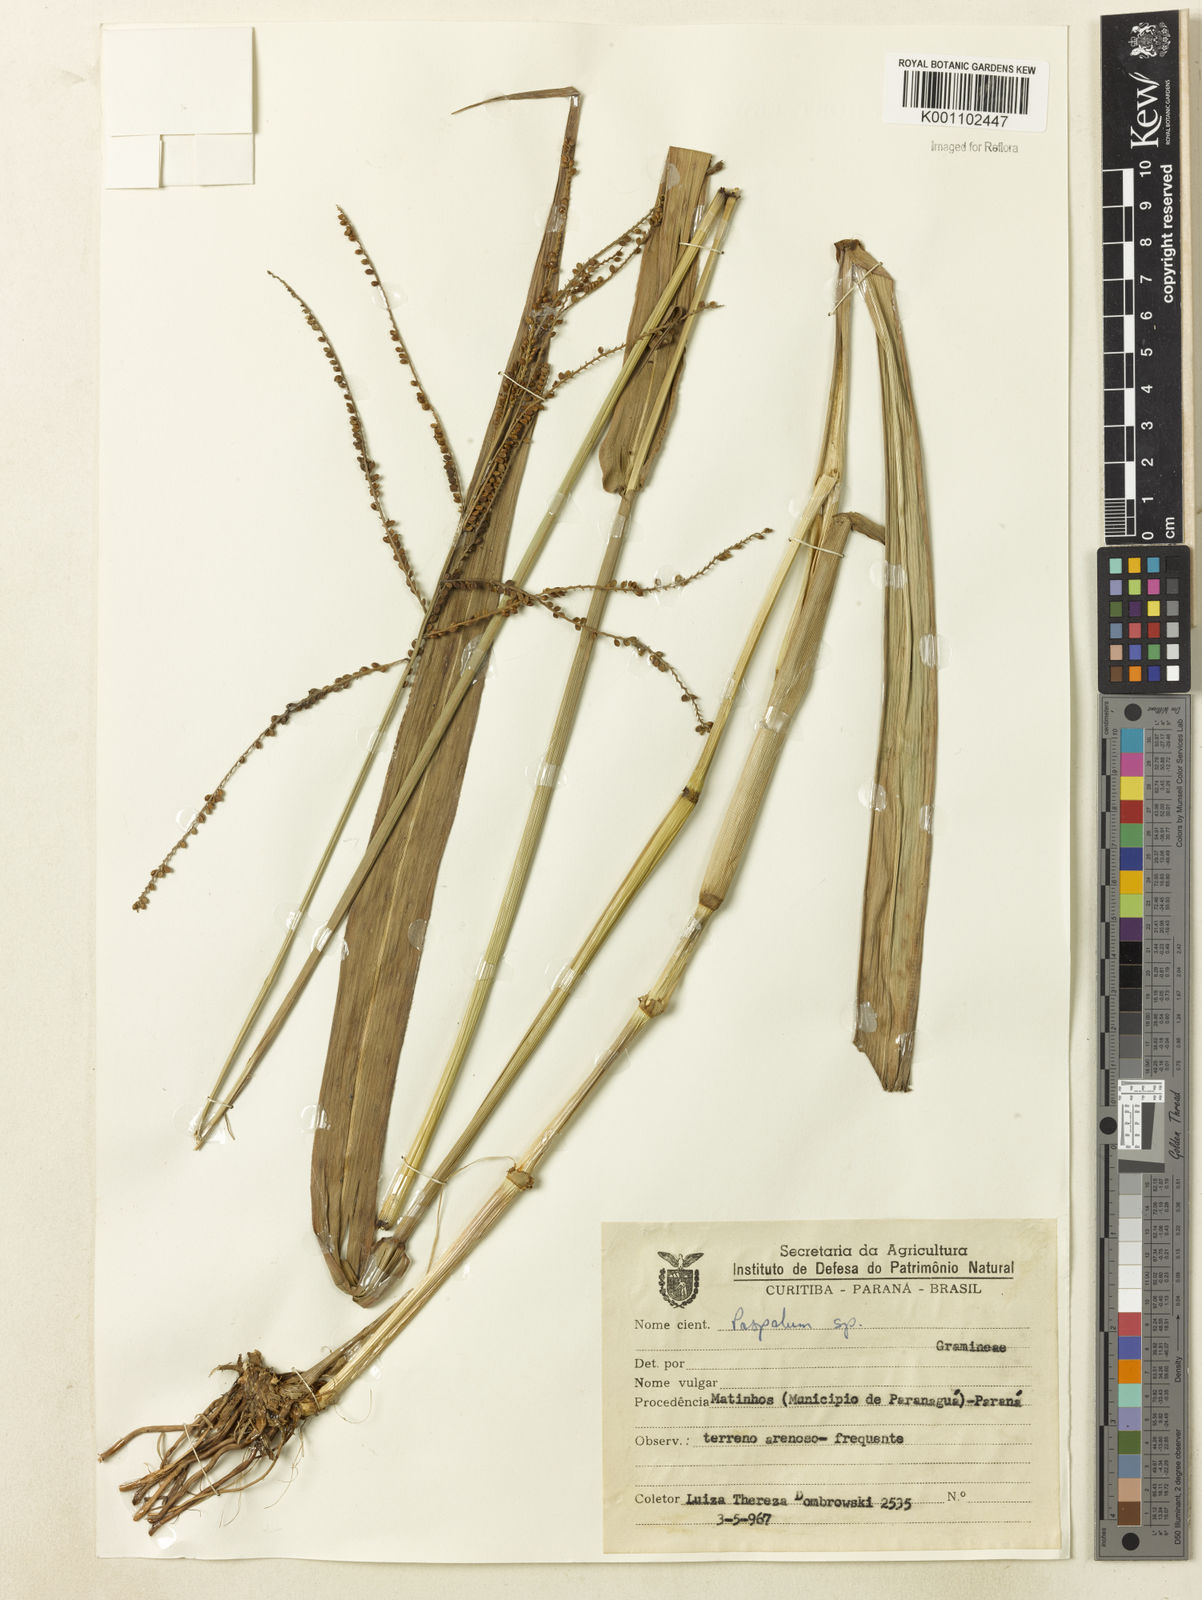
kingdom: Plantae
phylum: Tracheophyta
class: Liliopsida
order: Poales
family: Poaceae
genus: Paspalum
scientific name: Paspalum virgatum
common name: Talquezal
